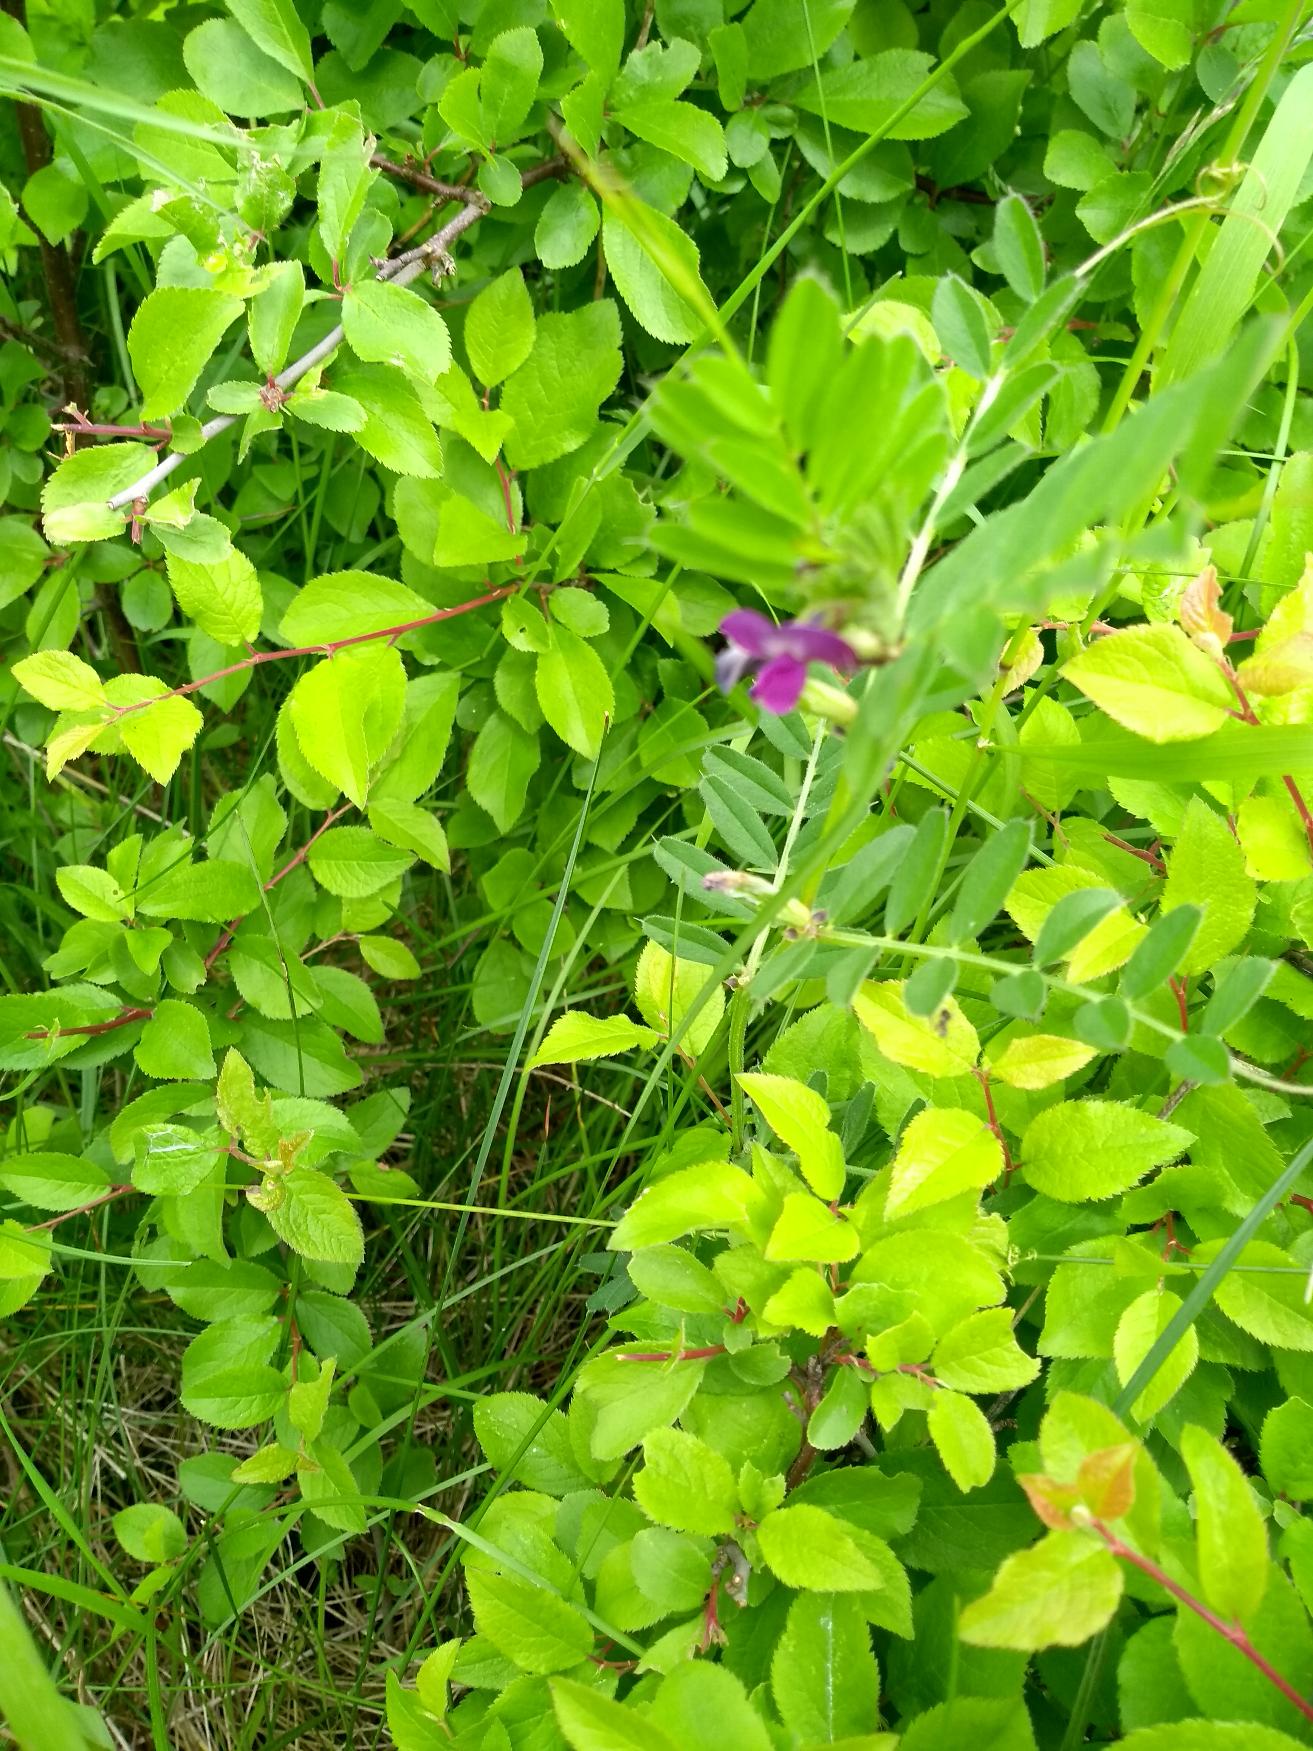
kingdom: Plantae
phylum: Tracheophyta
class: Magnoliopsida
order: Fabales
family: Fabaceae
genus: Vicia
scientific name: Vicia sativa
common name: Foder-vikke
